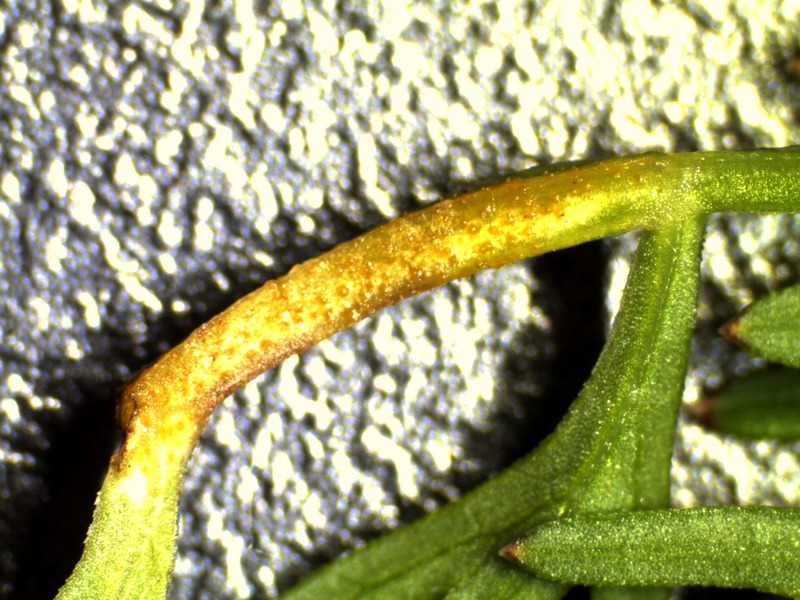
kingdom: Fungi
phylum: Basidiomycota
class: Pucciniomycetes
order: Pucciniales
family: Pucciniaceae
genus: Puccinia
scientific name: Puccinia semadenii
